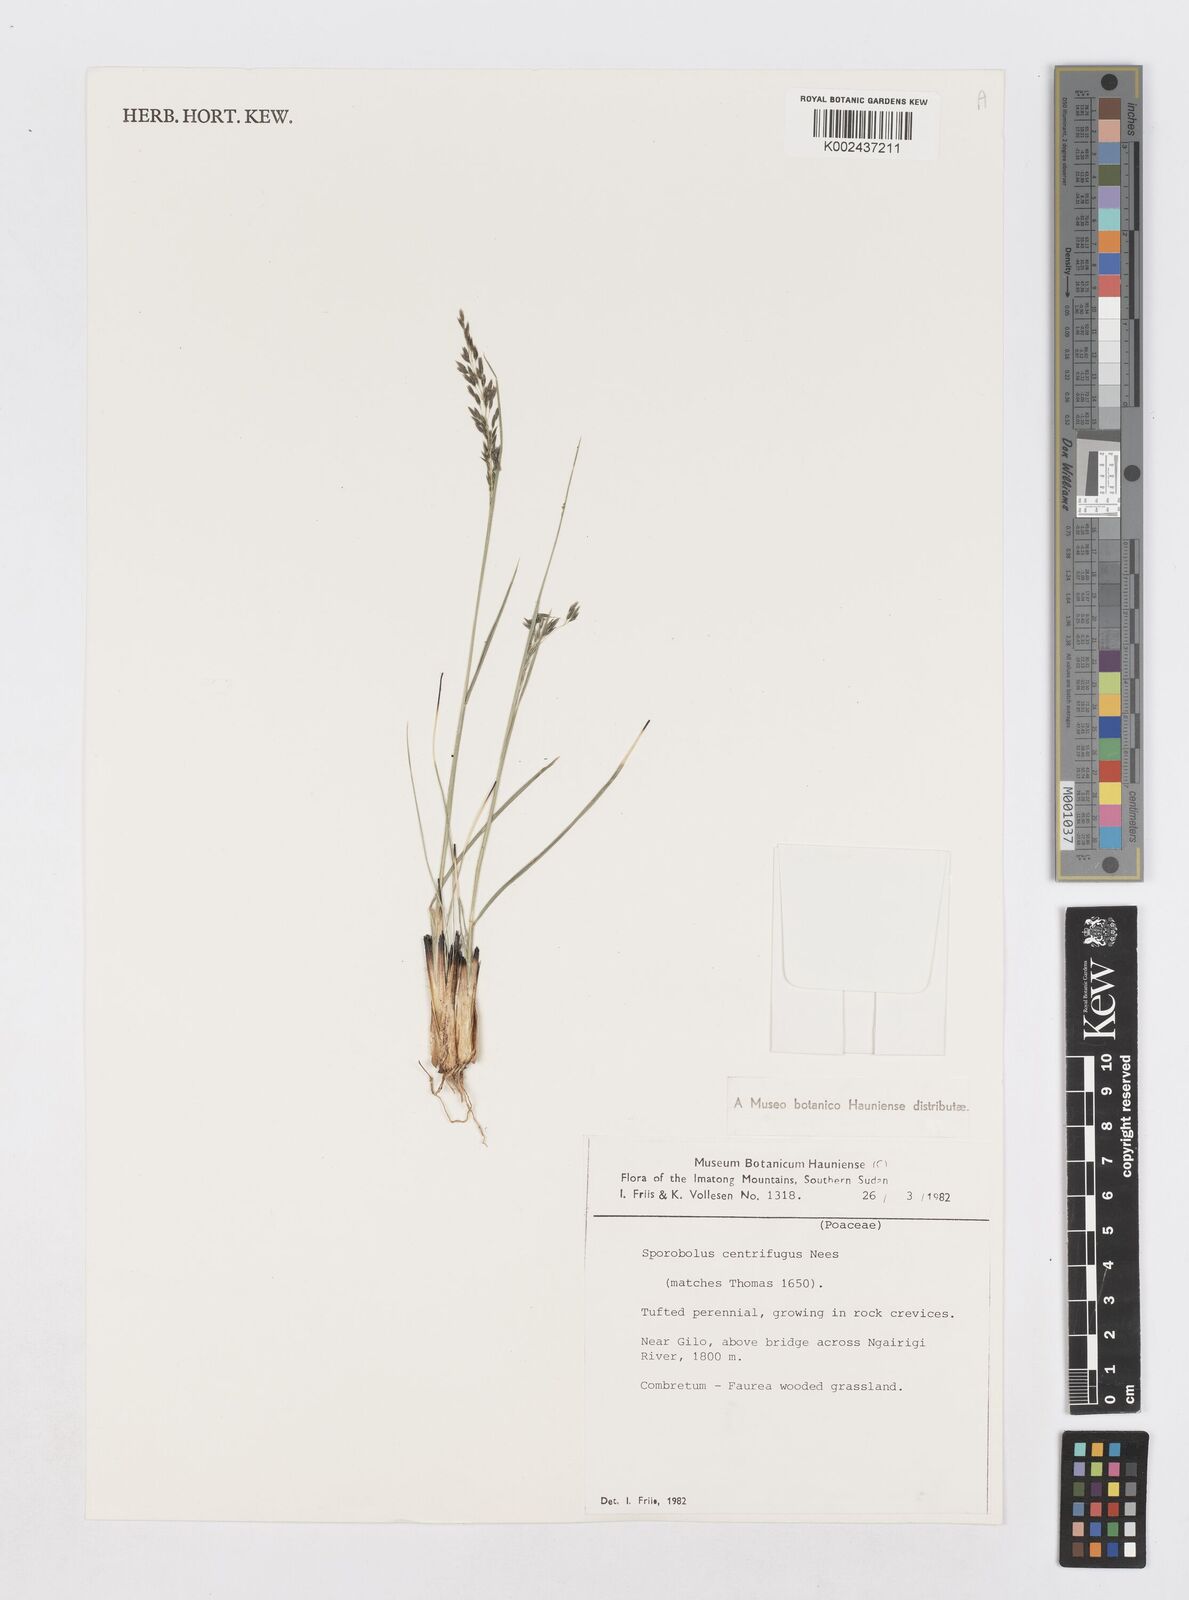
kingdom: Plantae
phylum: Tracheophyta
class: Liliopsida
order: Poales
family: Poaceae
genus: Sporobolus
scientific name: Sporobolus centrifugus
